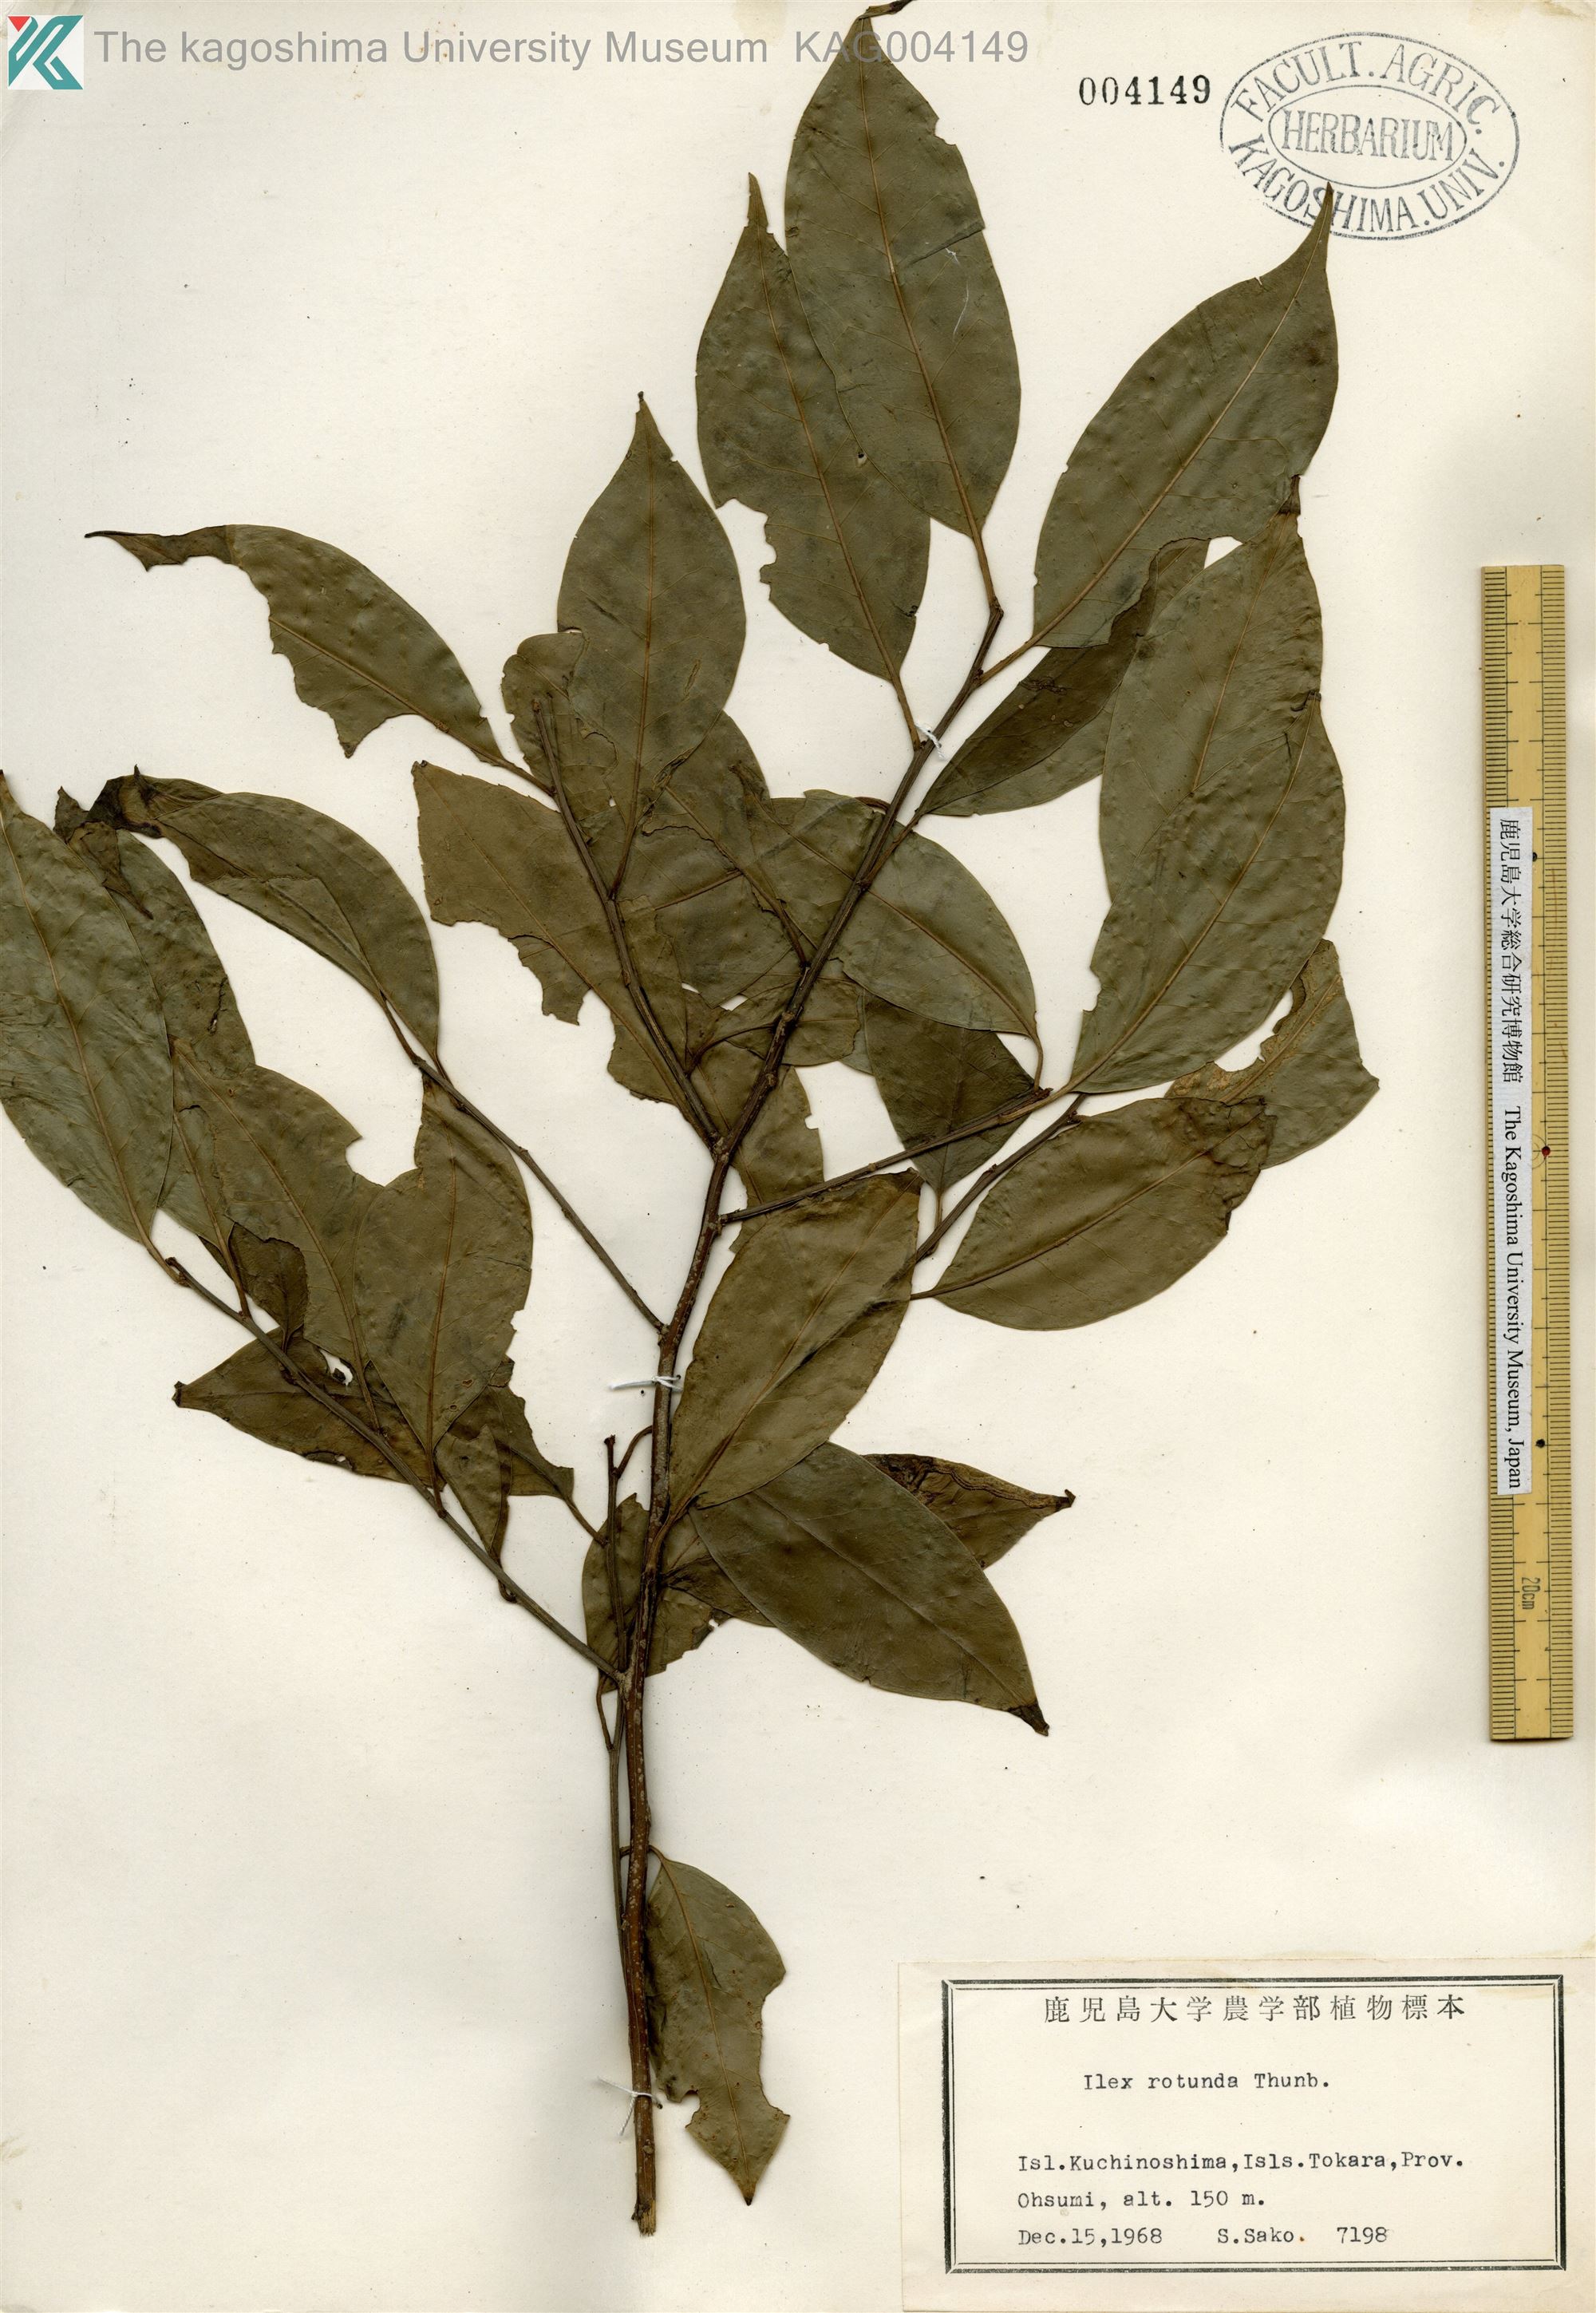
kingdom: Plantae
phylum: Tracheophyta
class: Magnoliopsida
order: Aquifoliales
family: Aquifoliaceae
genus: Ilex
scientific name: Ilex rotunda
